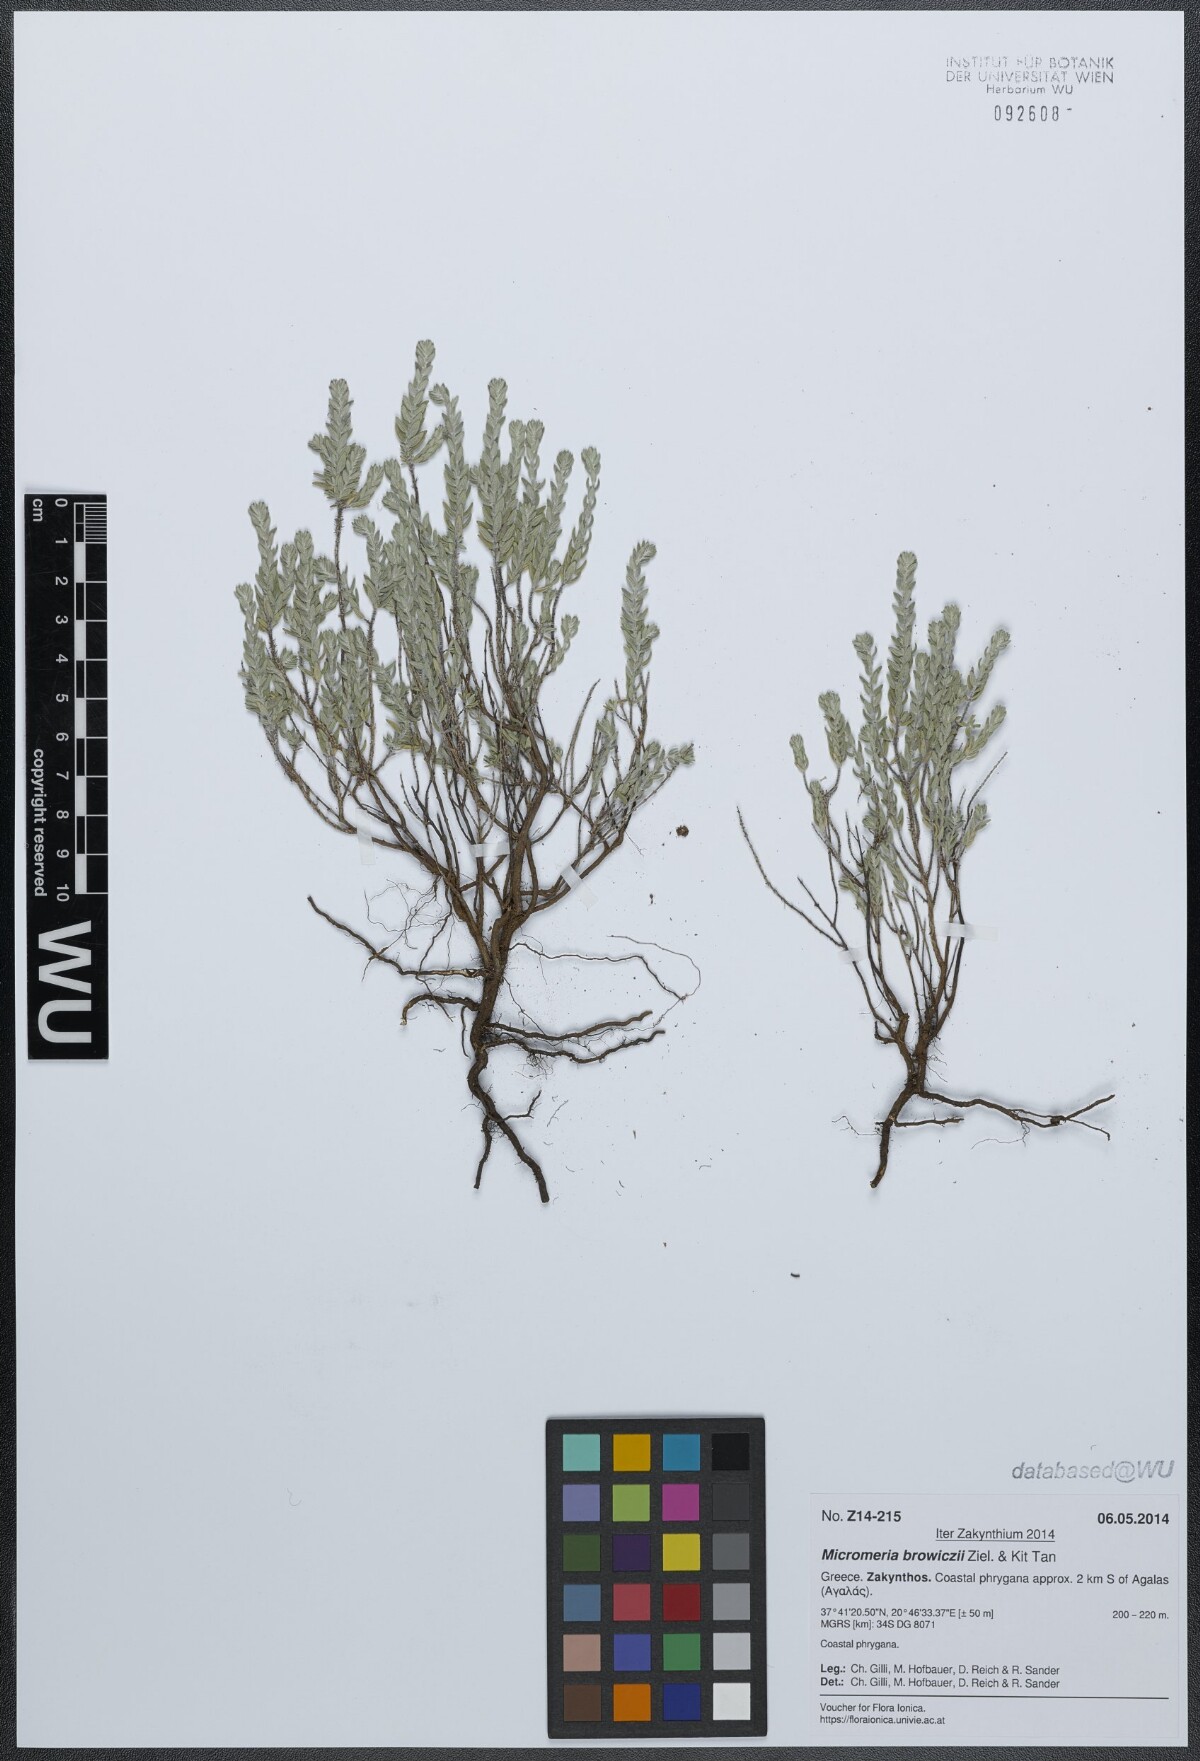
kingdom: Plantae
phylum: Tracheophyta
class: Magnoliopsida
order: Lamiales
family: Lamiaceae
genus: Micromeria
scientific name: Micromeria browiczii
